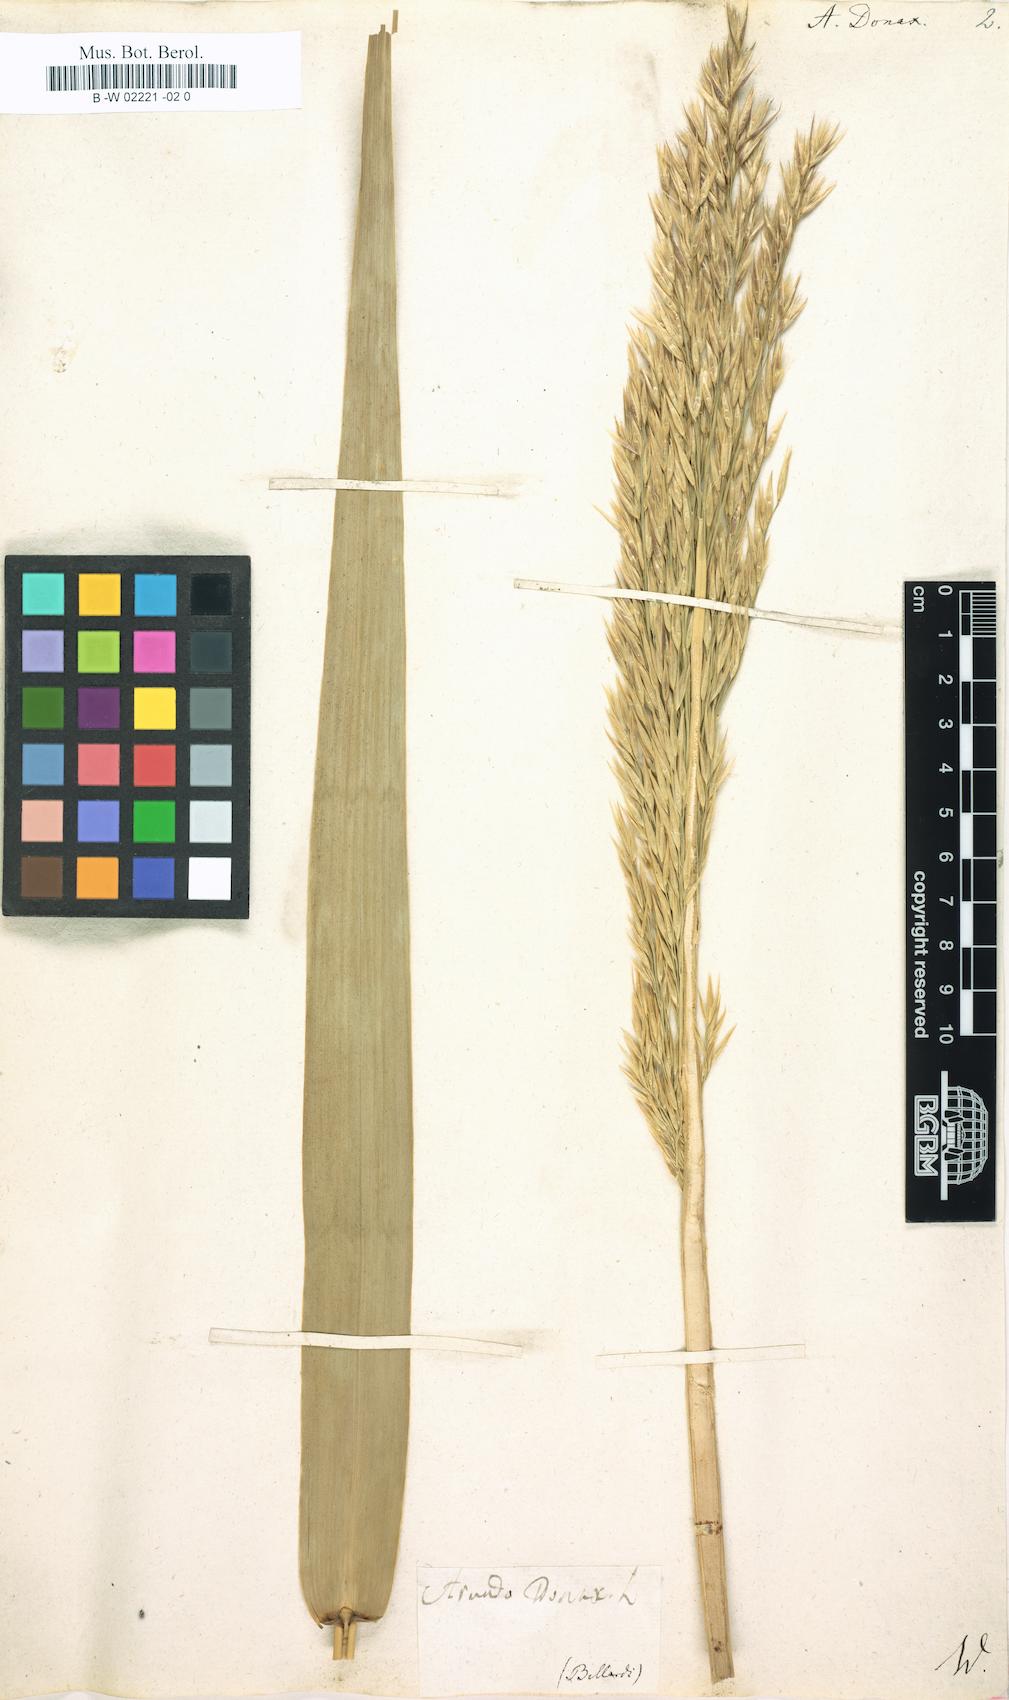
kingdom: Plantae
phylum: Tracheophyta
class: Liliopsida
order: Poales
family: Poaceae
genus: Arundo
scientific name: Arundo donax
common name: Giant reed
